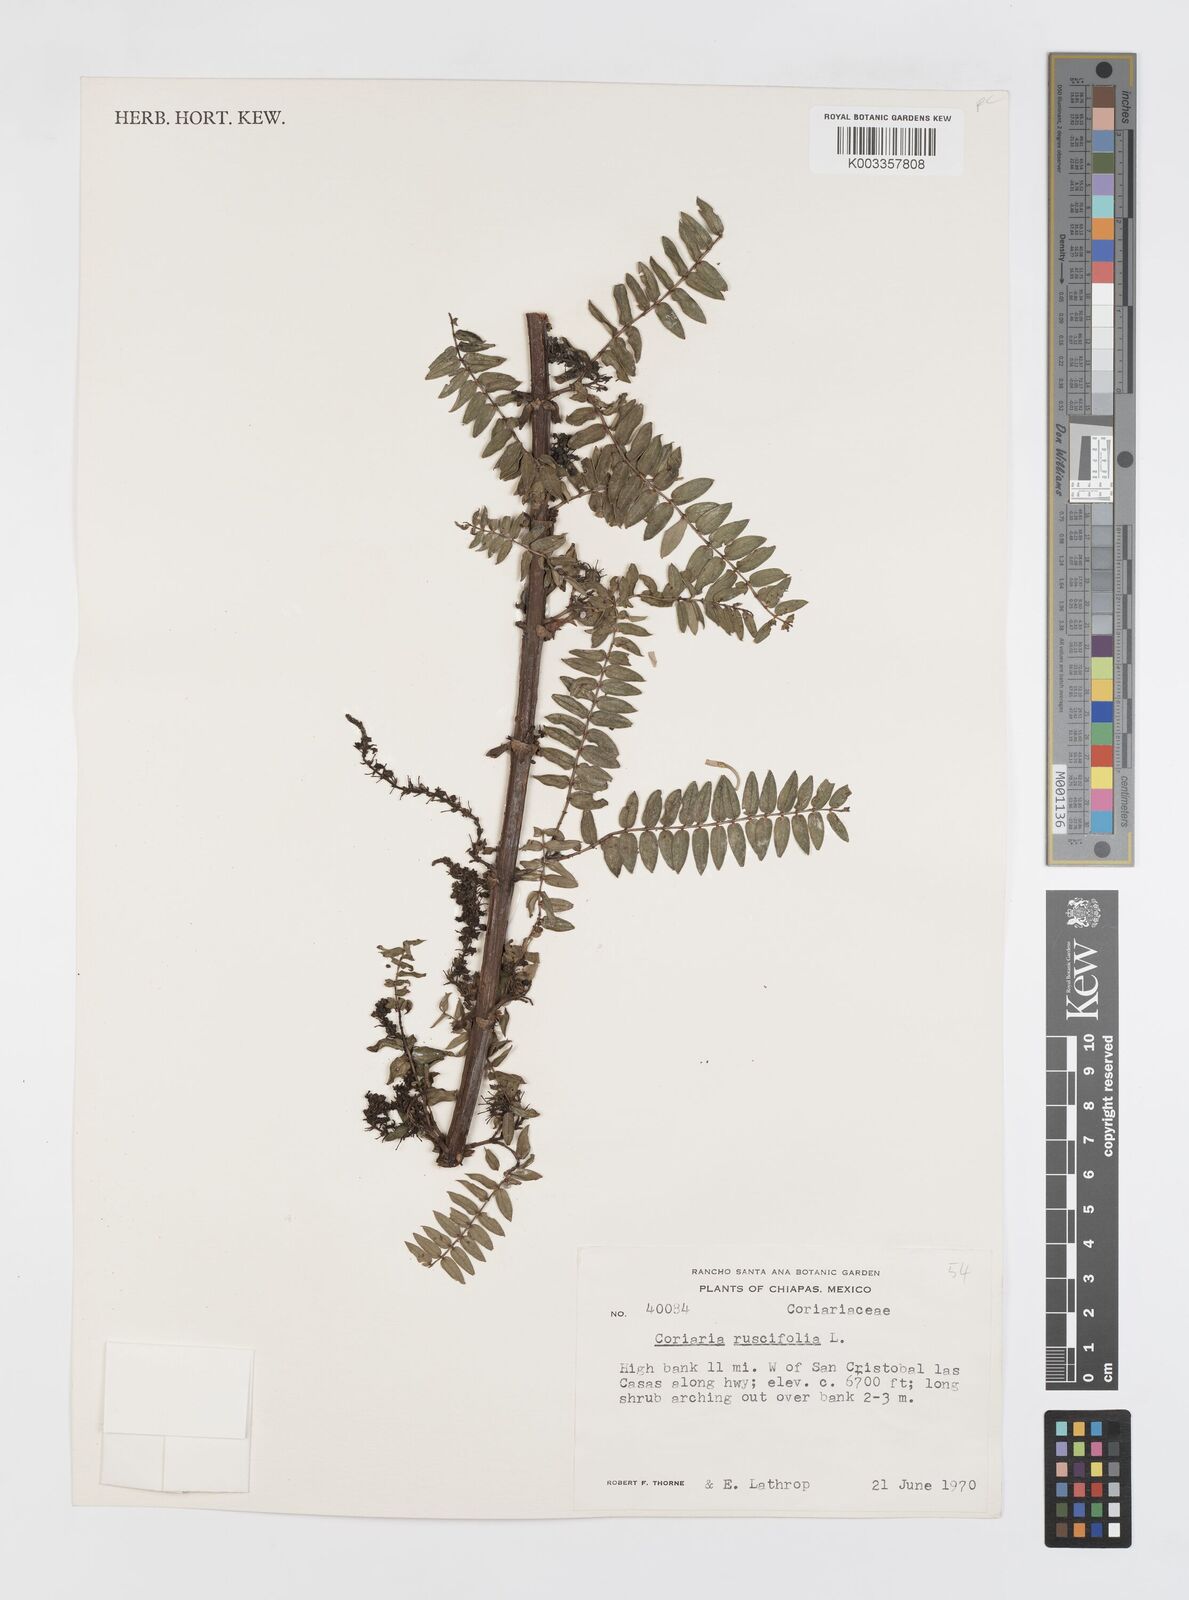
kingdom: Plantae
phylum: Tracheophyta
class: Magnoliopsida
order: Cucurbitales
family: Coriariaceae
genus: Coriaria
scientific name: Coriaria microphylla
